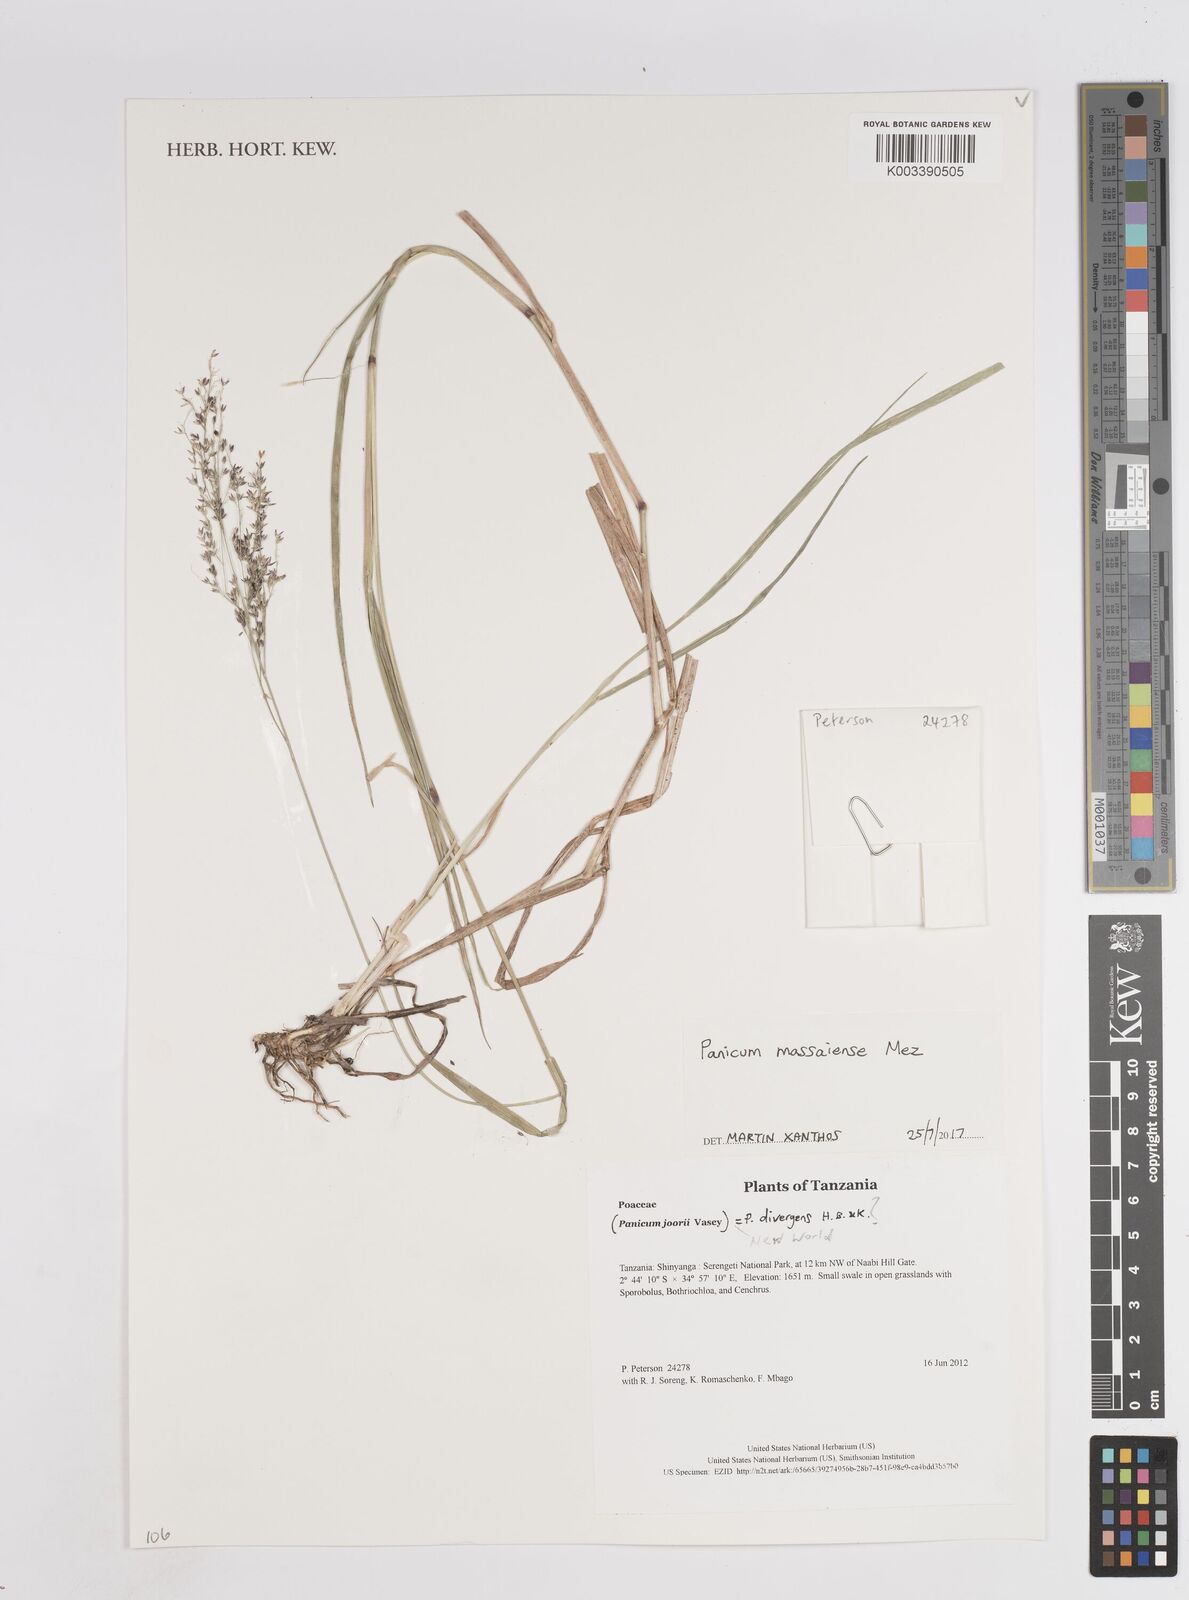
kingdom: Plantae
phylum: Tracheophyta
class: Liliopsida
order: Poales
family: Poaceae
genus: Panicum
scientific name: Panicum massaiense
